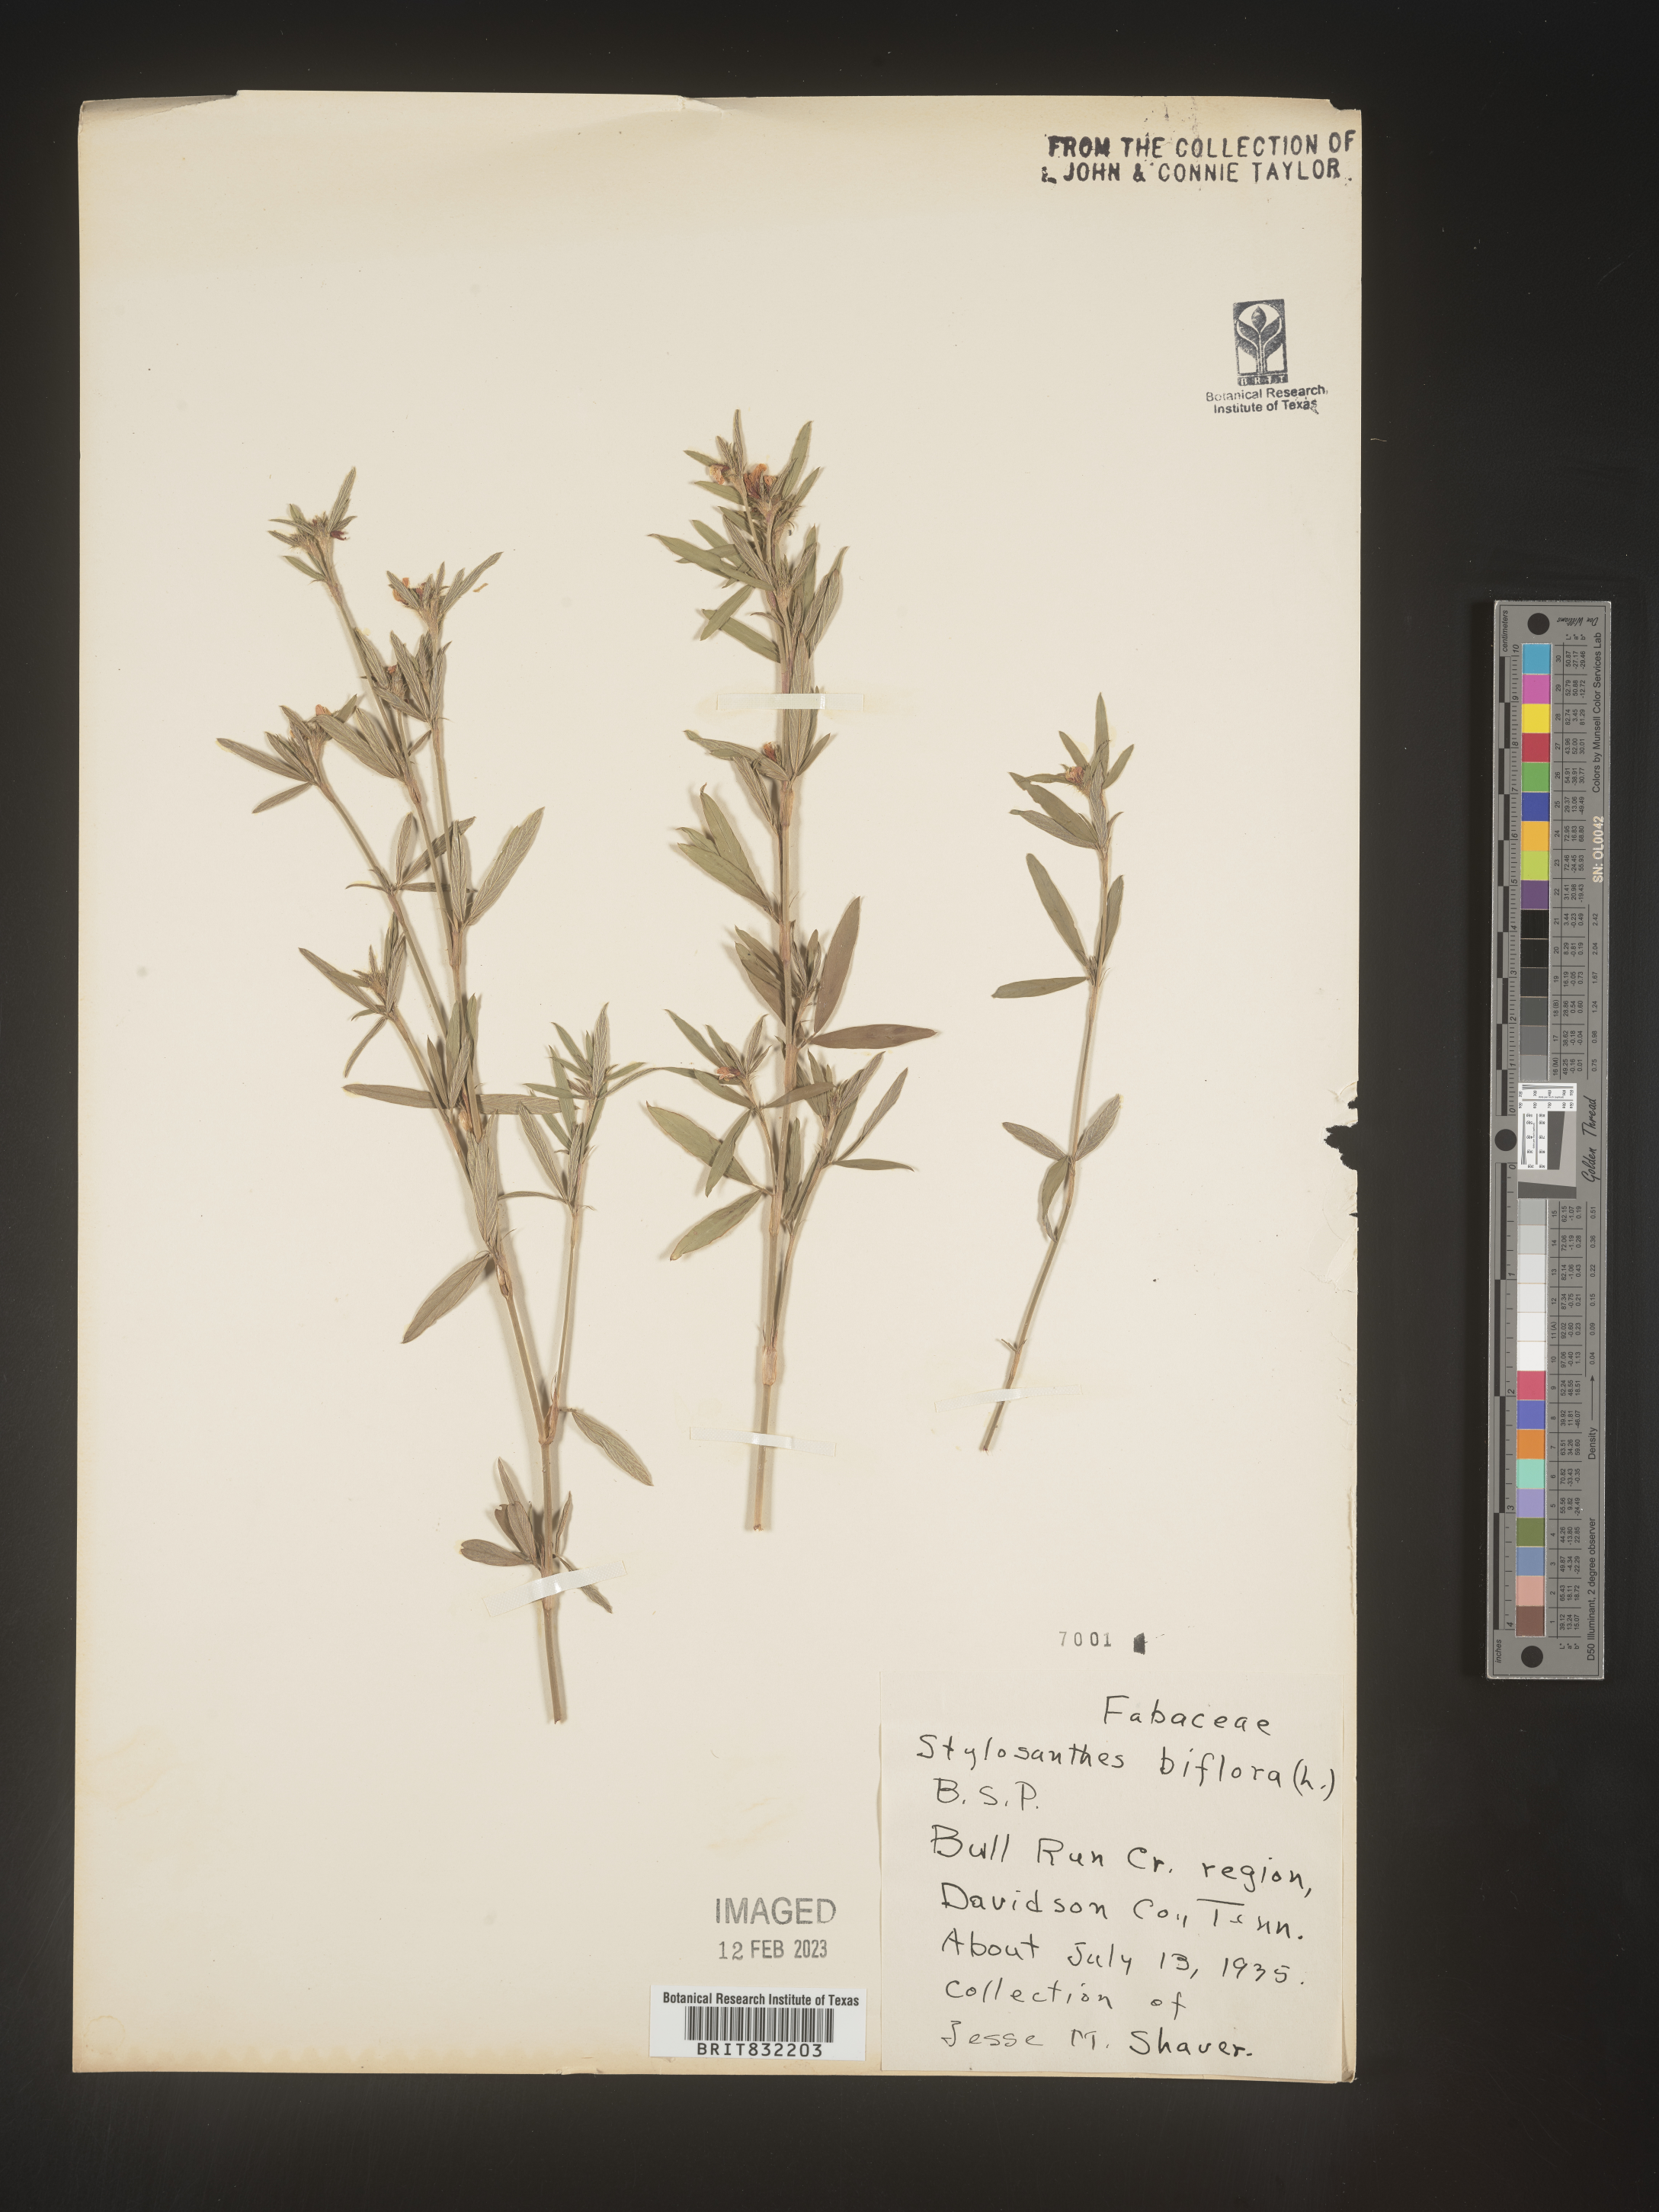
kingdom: Plantae
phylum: Tracheophyta
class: Magnoliopsida
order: Fabales
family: Fabaceae
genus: Stylosanthes
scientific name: Stylosanthes biflora
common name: Two-flower pencil-flower
